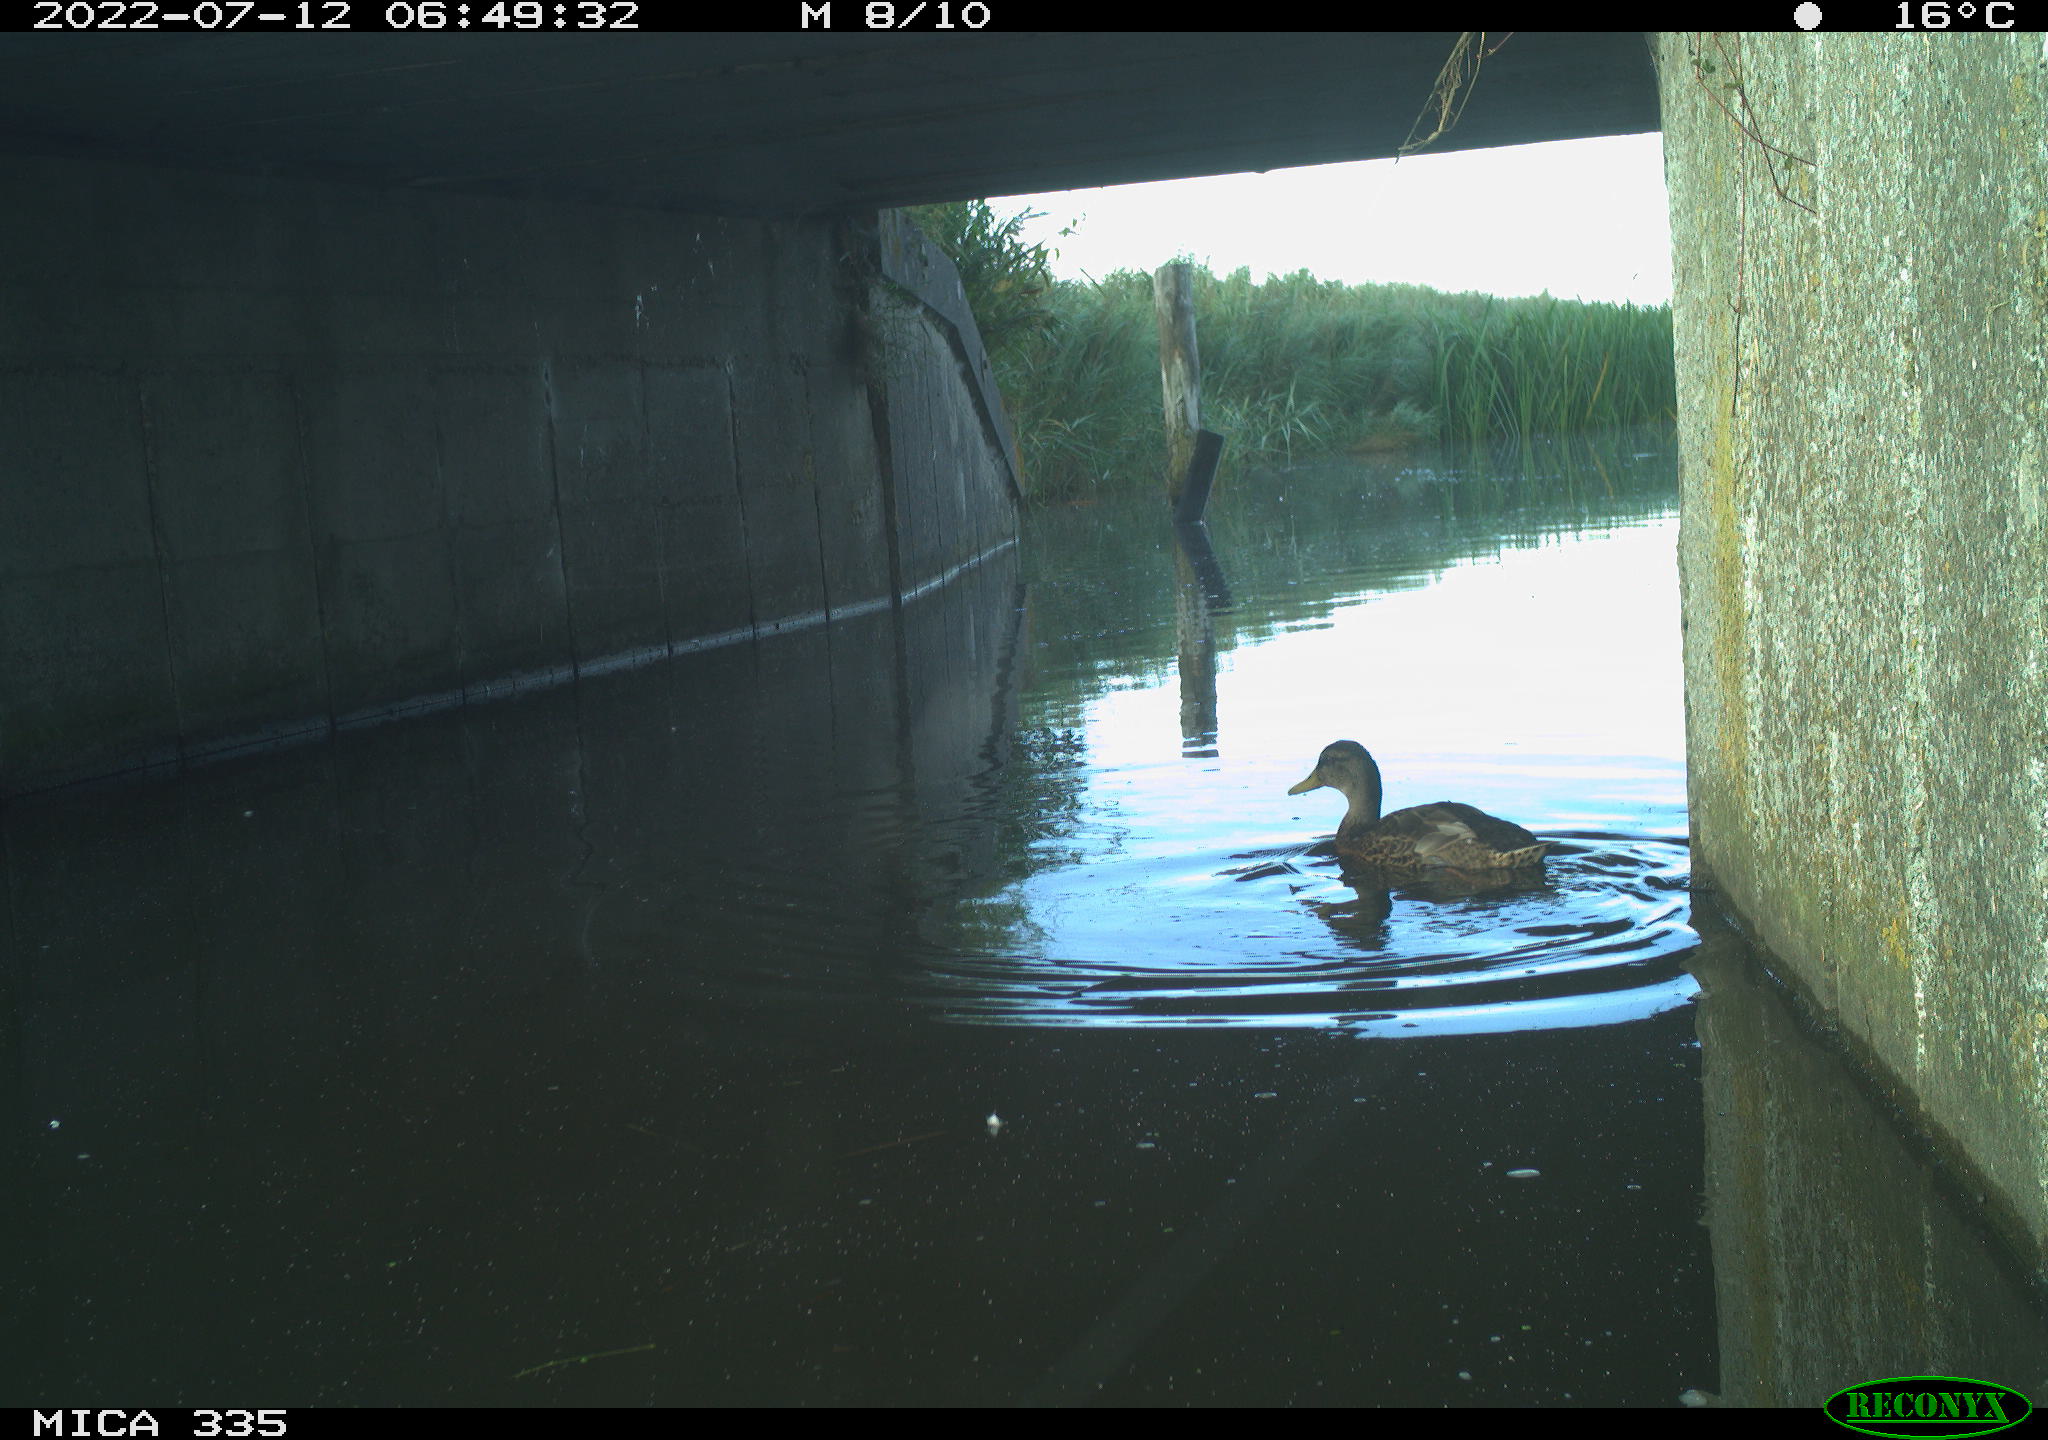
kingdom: Animalia
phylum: Chordata
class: Aves
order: Anseriformes
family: Anatidae
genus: Mareca
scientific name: Mareca strepera
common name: Gadwall
